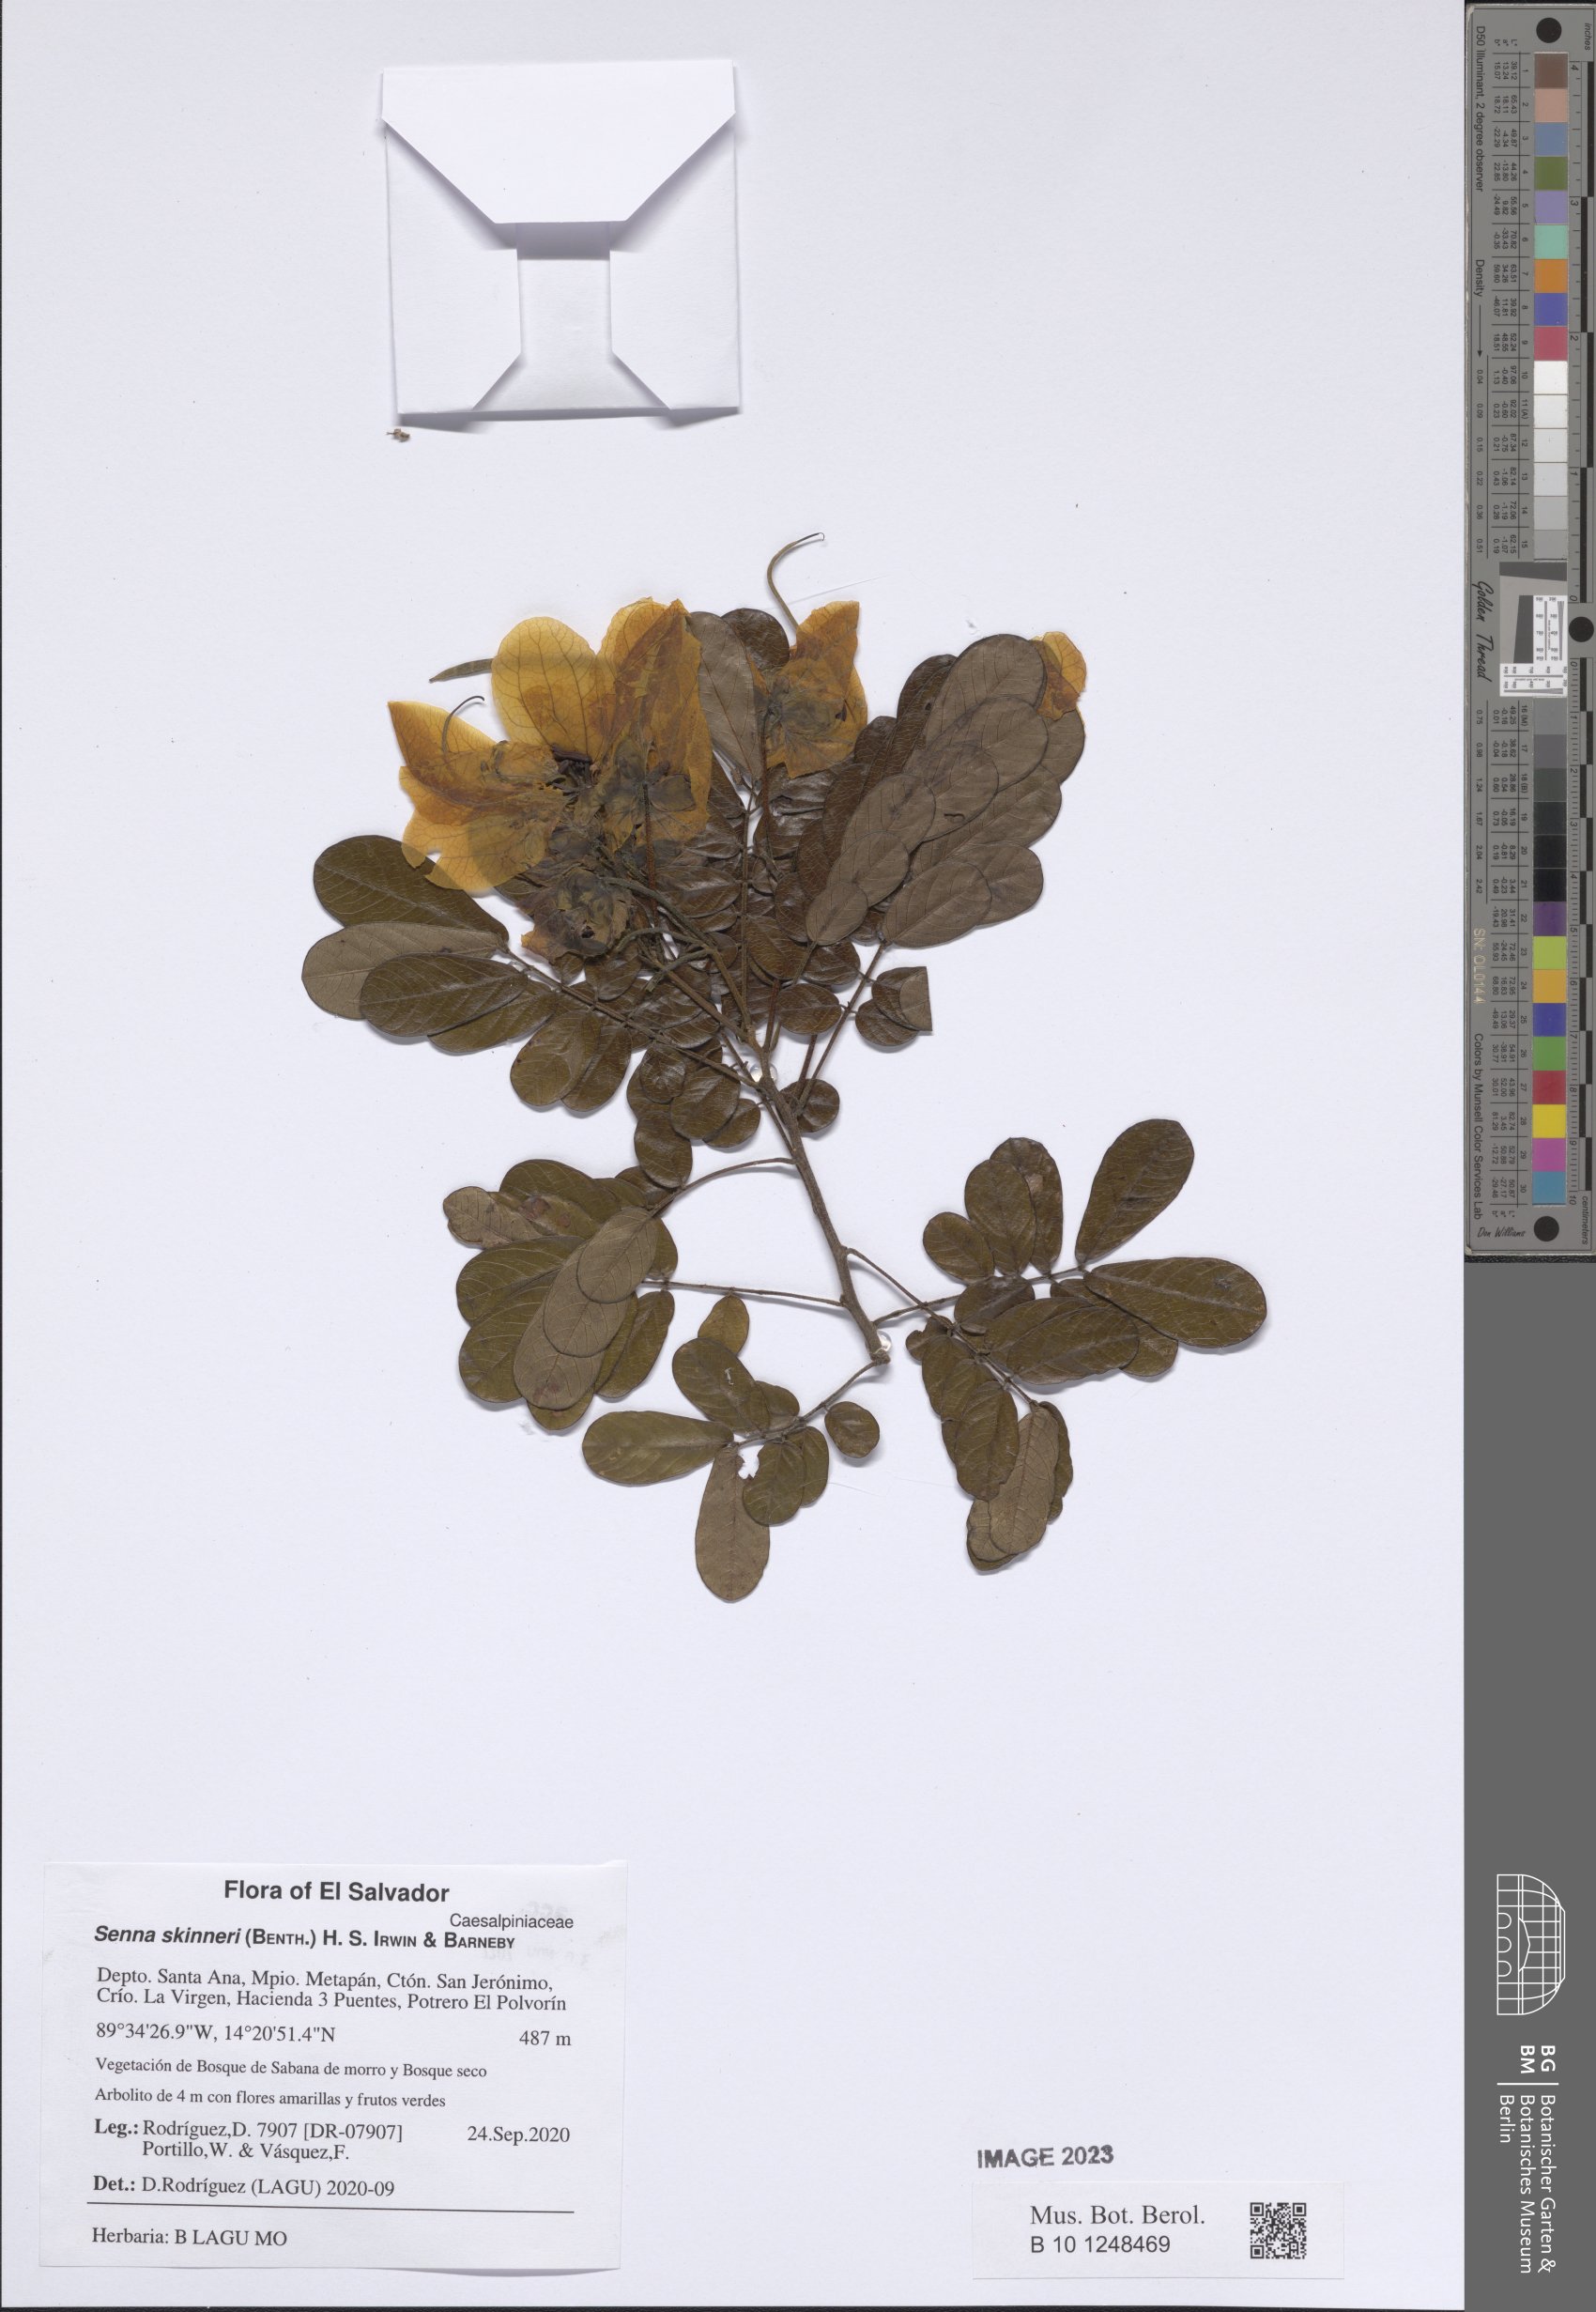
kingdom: Plantae
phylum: Tracheophyta
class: Magnoliopsida
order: Fabales
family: Fabaceae
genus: Senna
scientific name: Senna skinneri
